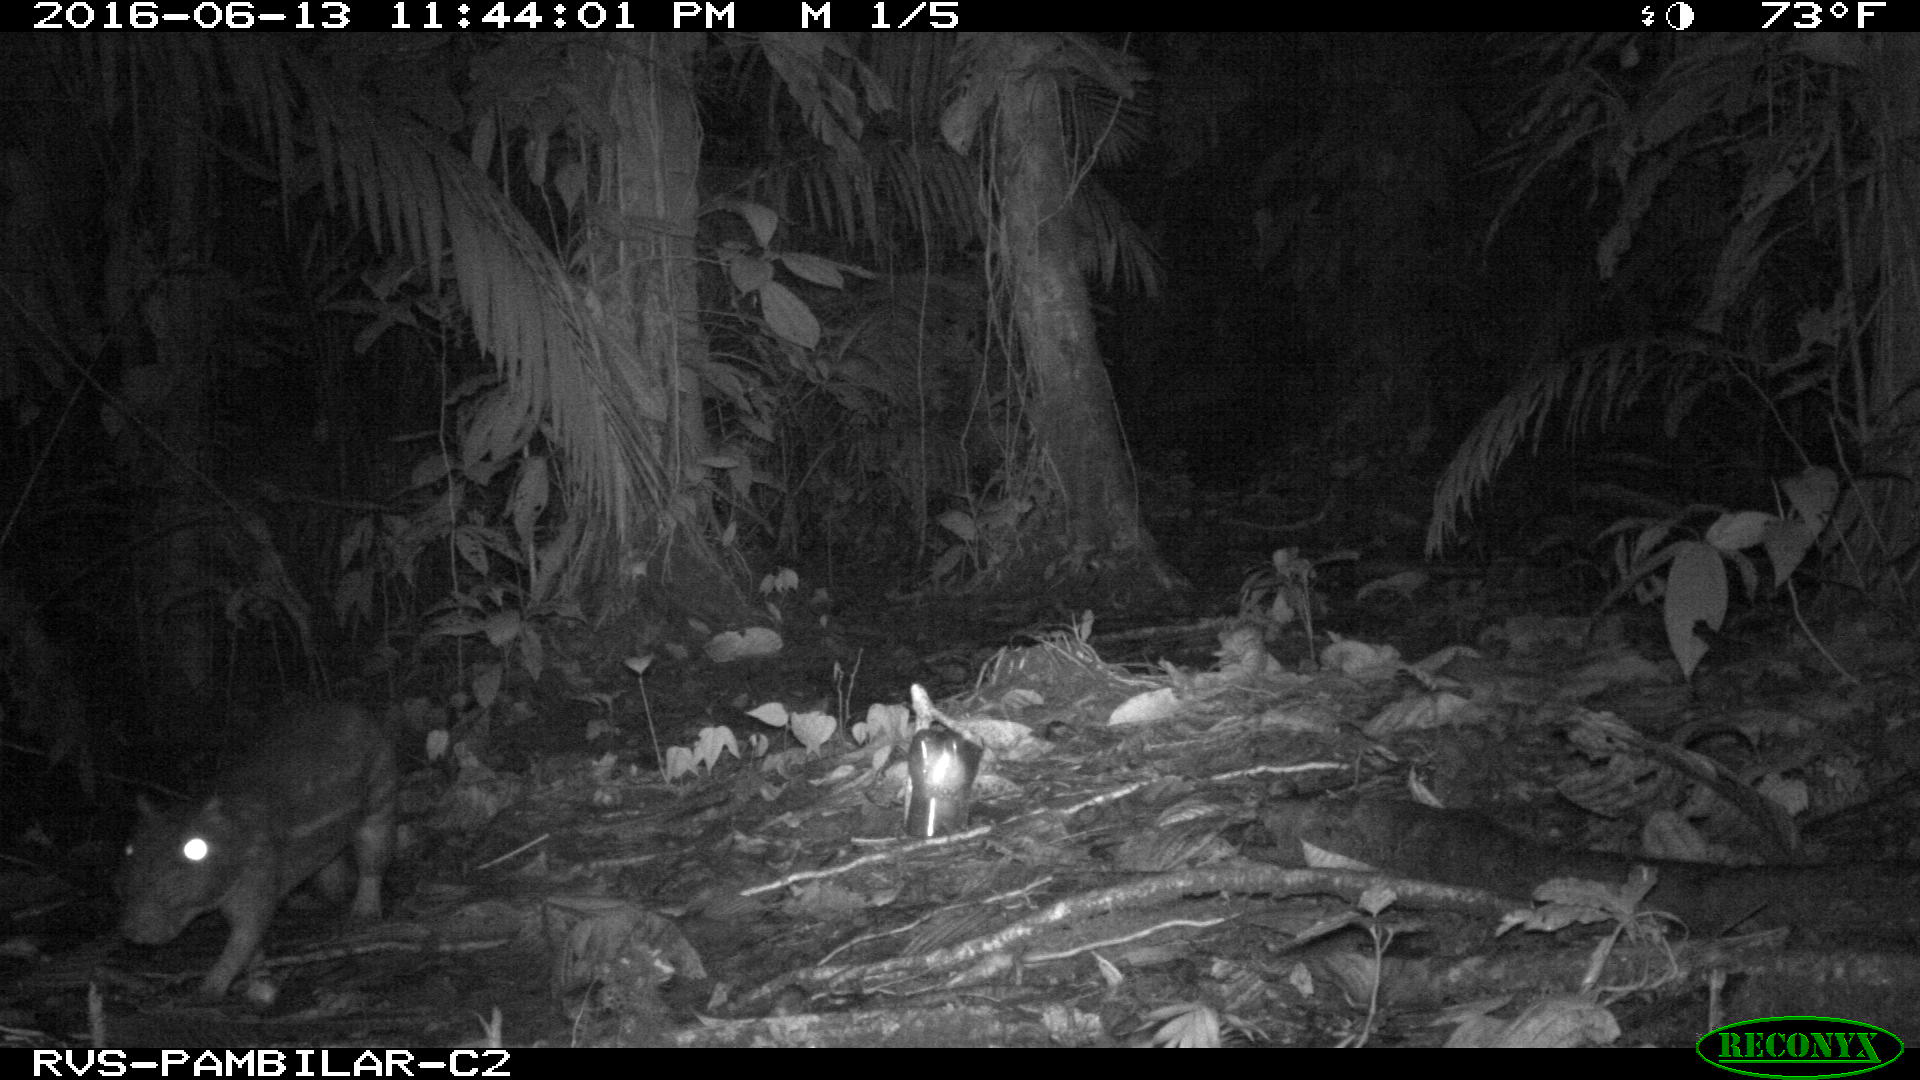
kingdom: Animalia
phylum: Chordata
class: Mammalia
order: Rodentia
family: Cuniculidae
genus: Cuniculus
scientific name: Cuniculus paca
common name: Lowland paca
